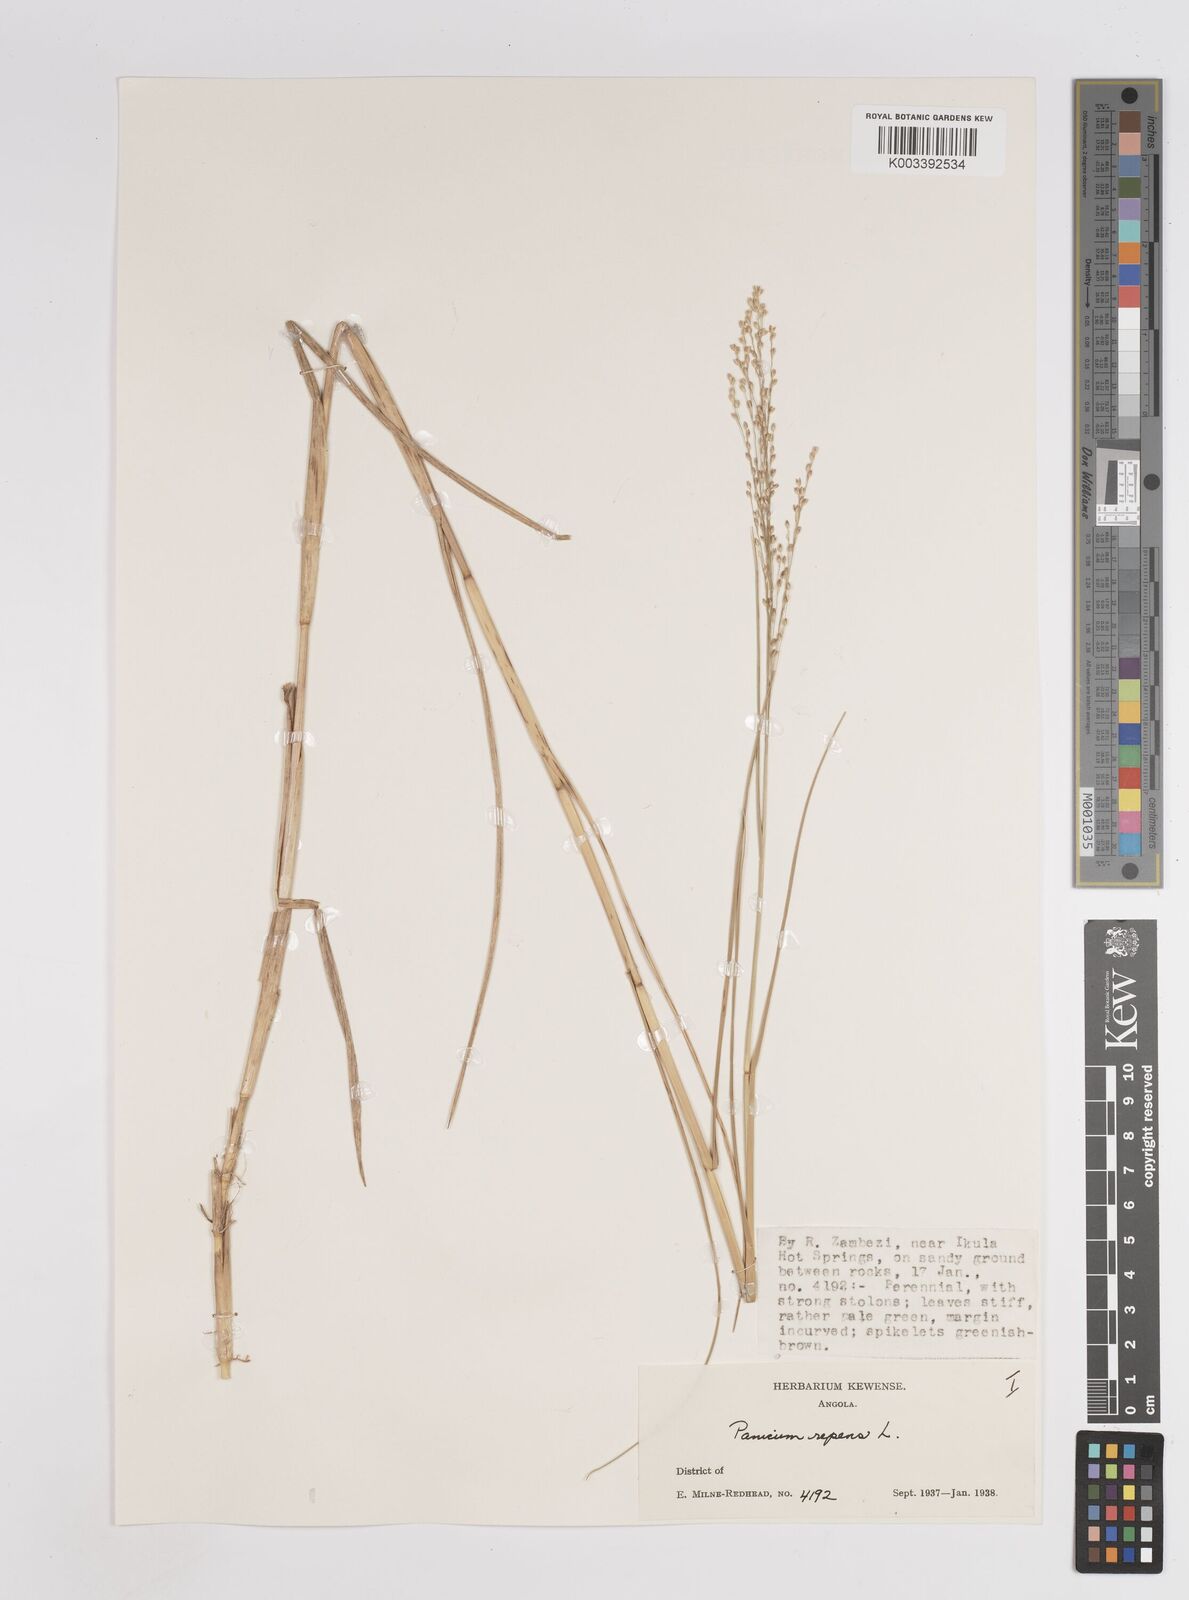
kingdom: Plantae
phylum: Tracheophyta
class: Liliopsida
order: Poales
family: Poaceae
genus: Panicum
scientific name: Panicum repens
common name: Torpedo grass
